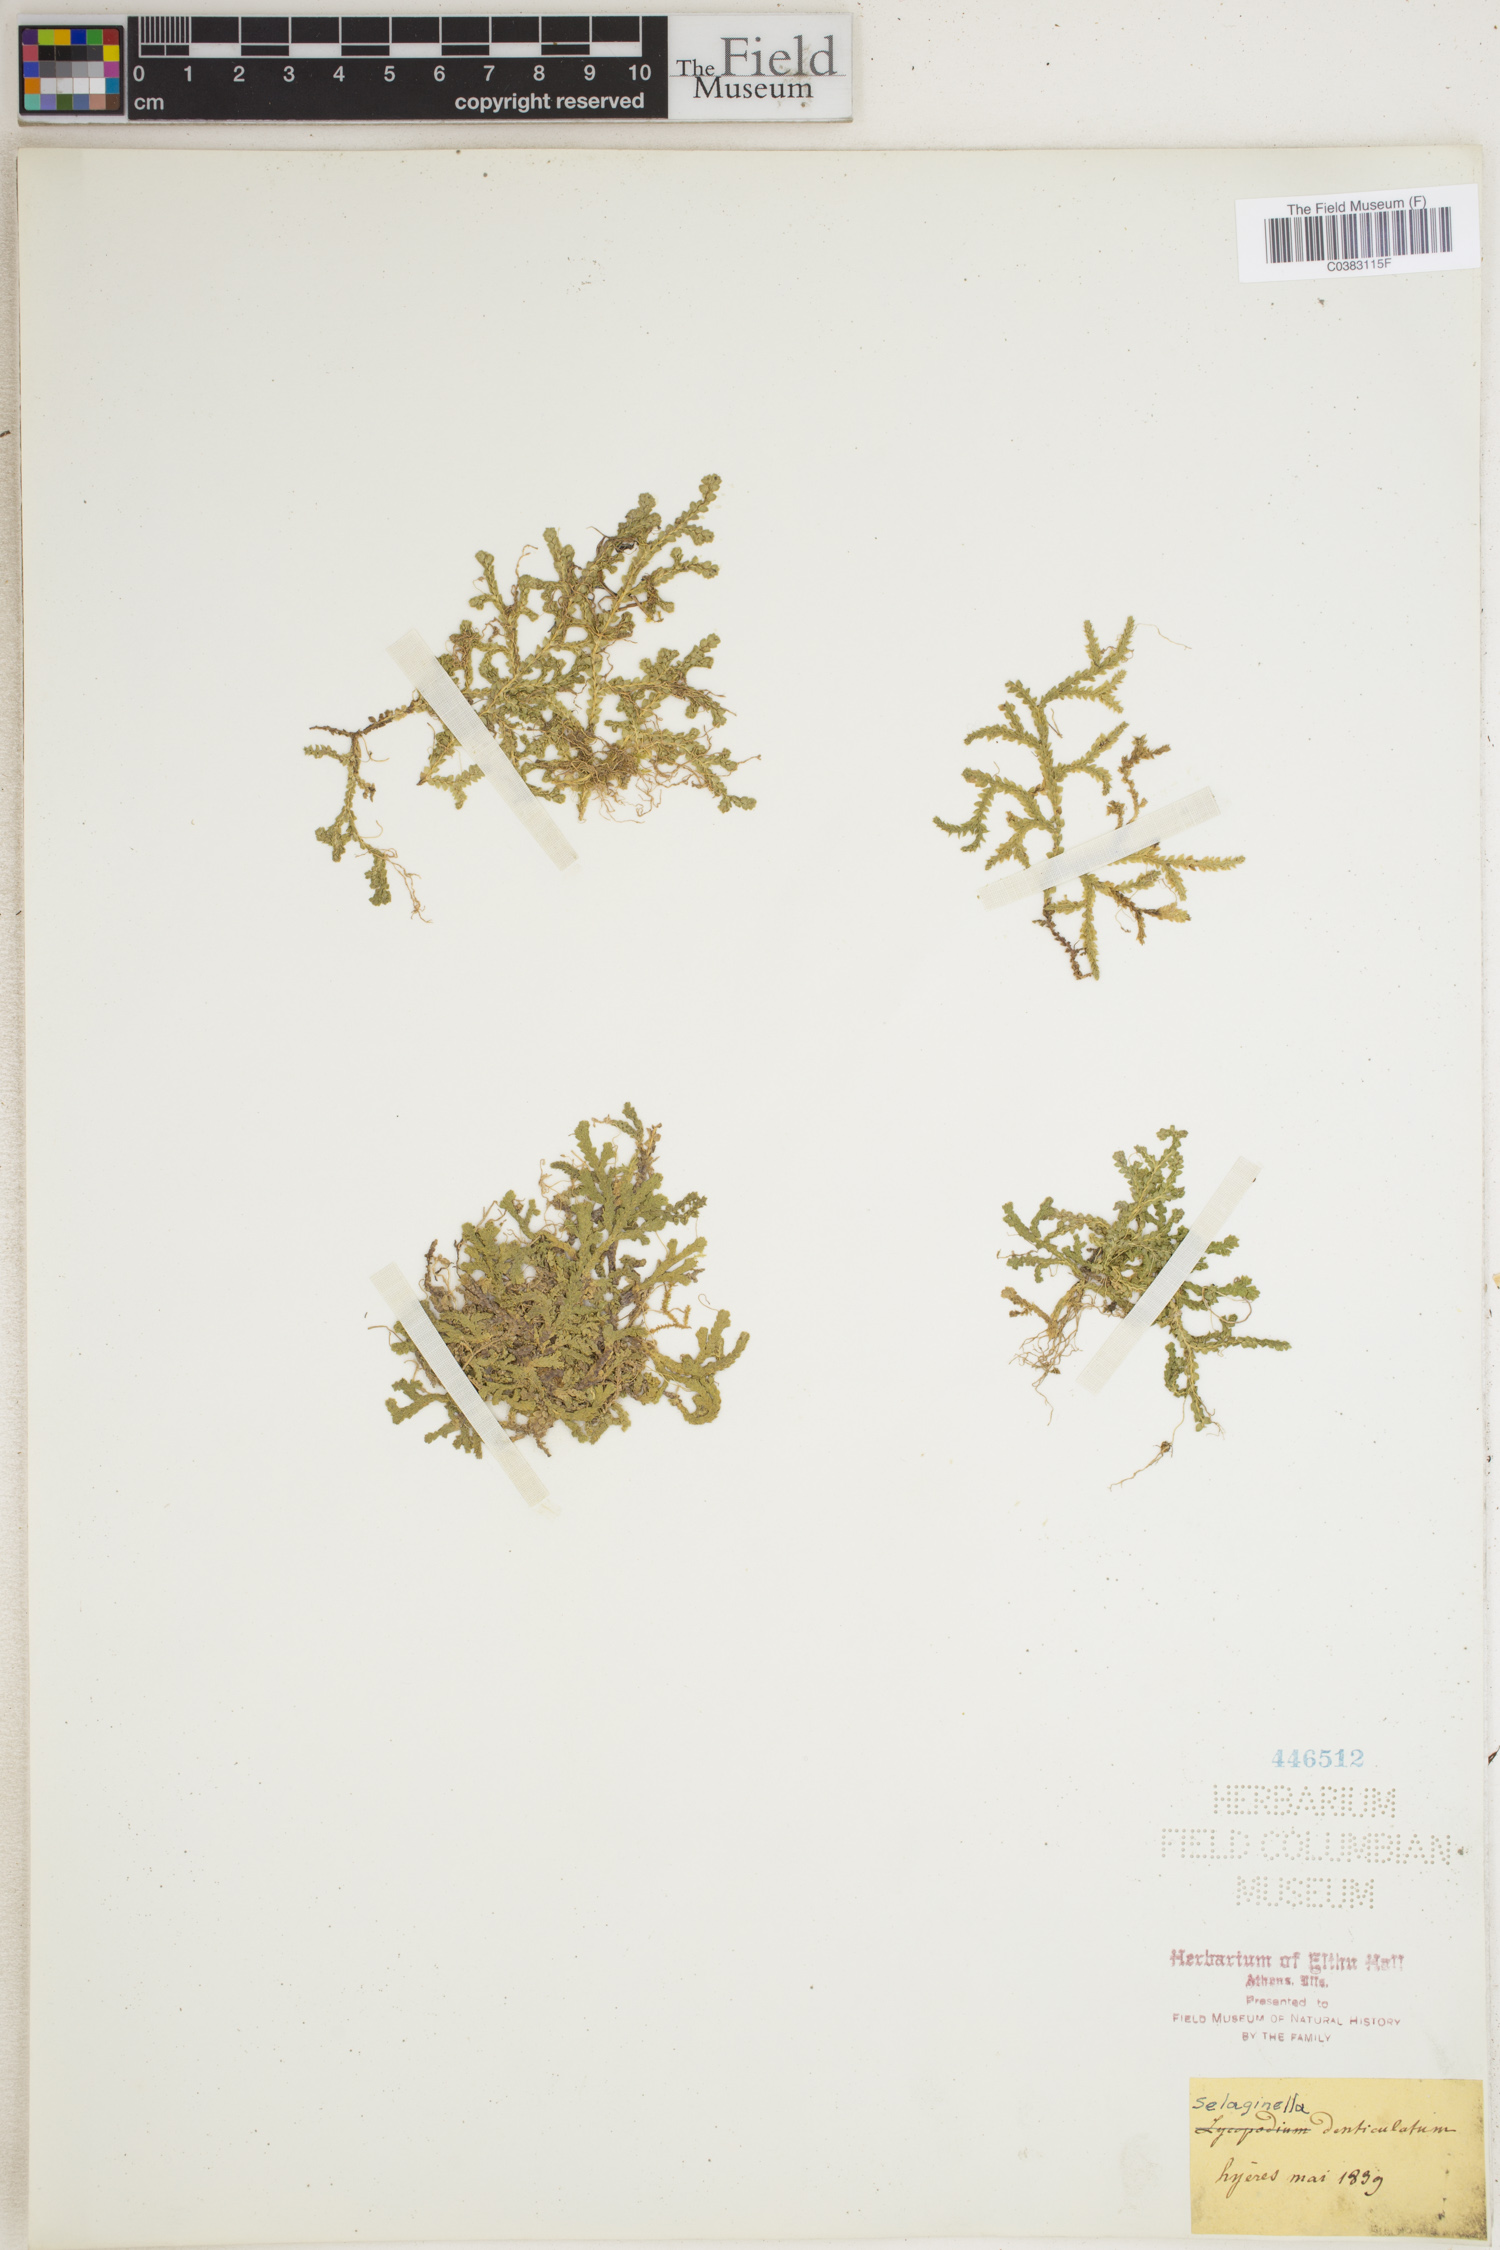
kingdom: Plantae
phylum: Tracheophyta
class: Lycopodiopsida
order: Selaginellales
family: Selaginellaceae
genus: Selaginella
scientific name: Selaginella denticulata
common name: Toothed-leaved clubmoss
